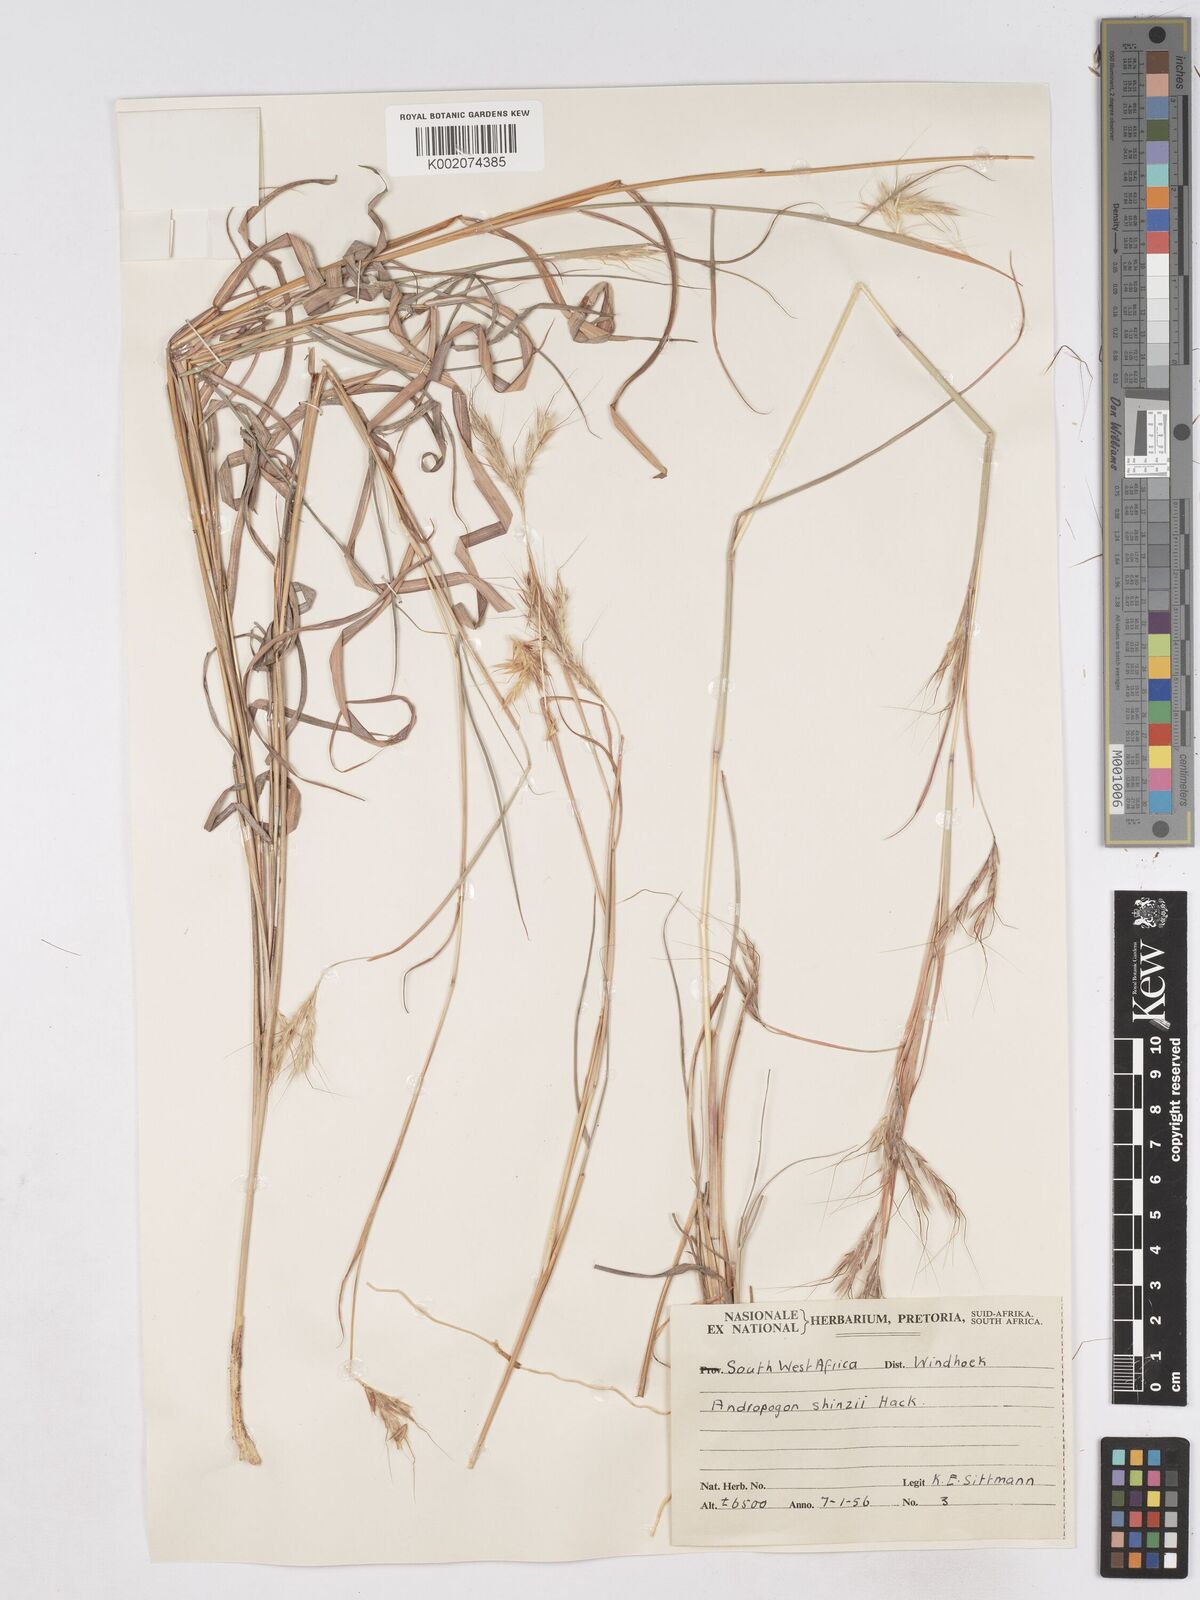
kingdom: Plantae
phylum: Tracheophyta
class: Liliopsida
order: Poales
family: Poaceae
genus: Hyparrhenia
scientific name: Hyparrhenia hirta
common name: Thatching grass
